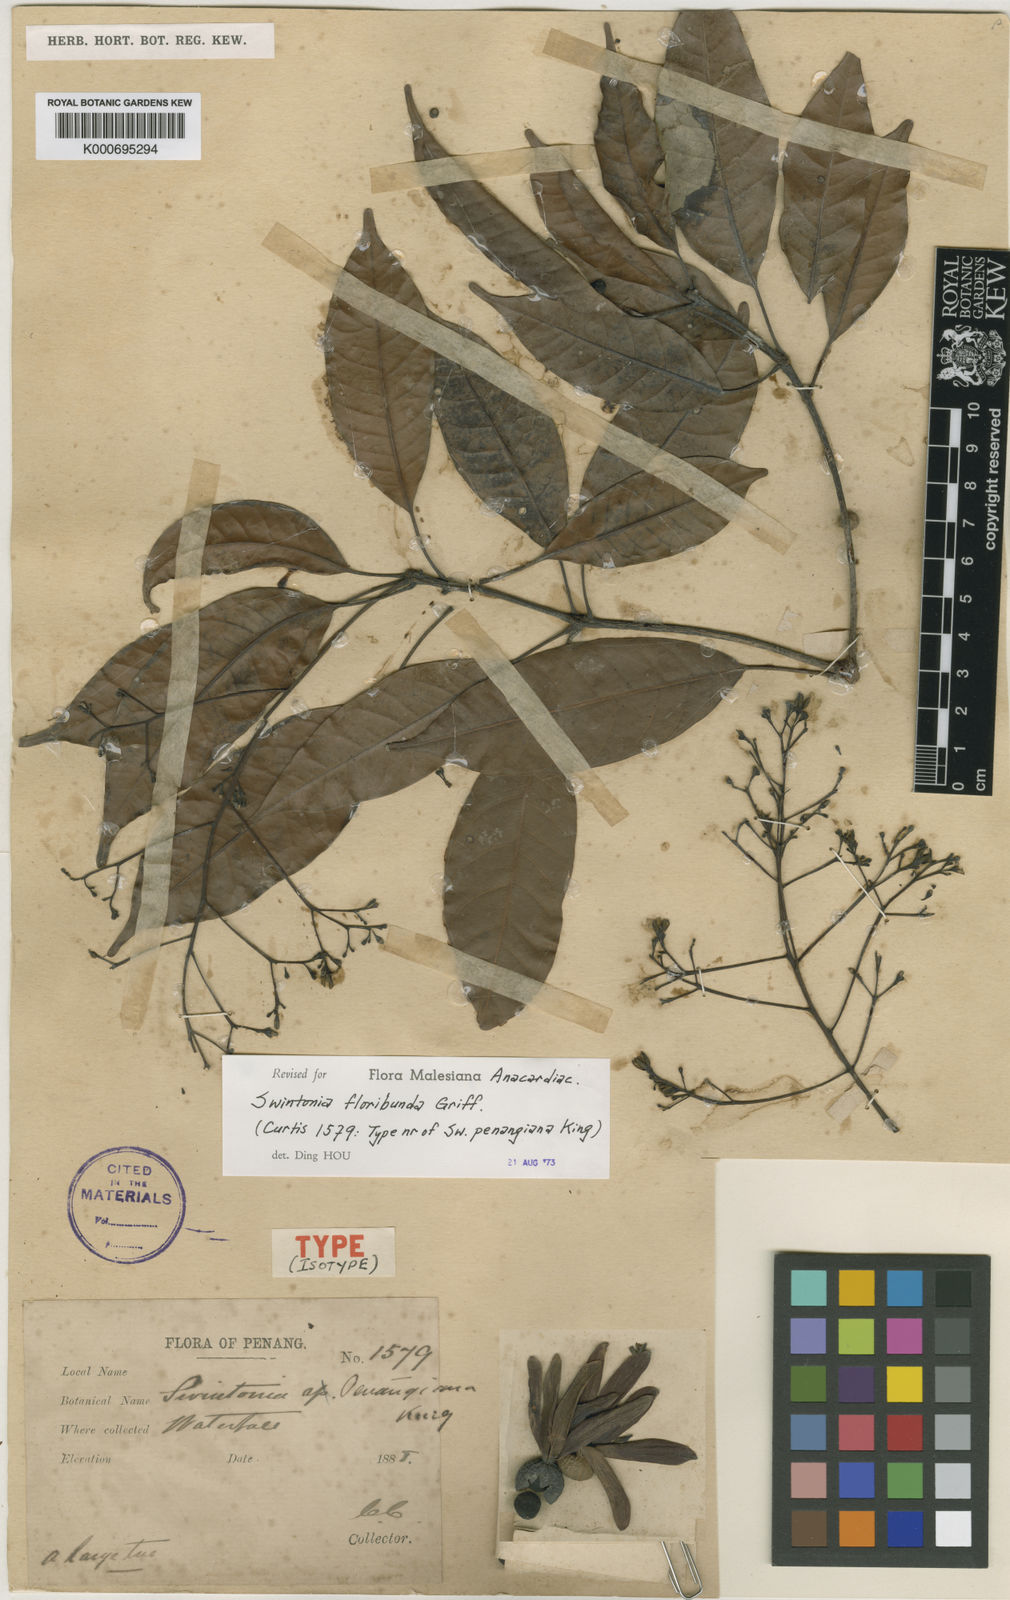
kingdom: Plantae
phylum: Tracheophyta
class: Magnoliopsida
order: Sapindales
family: Anacardiaceae
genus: Swintonia
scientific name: Swintonia floribunda
